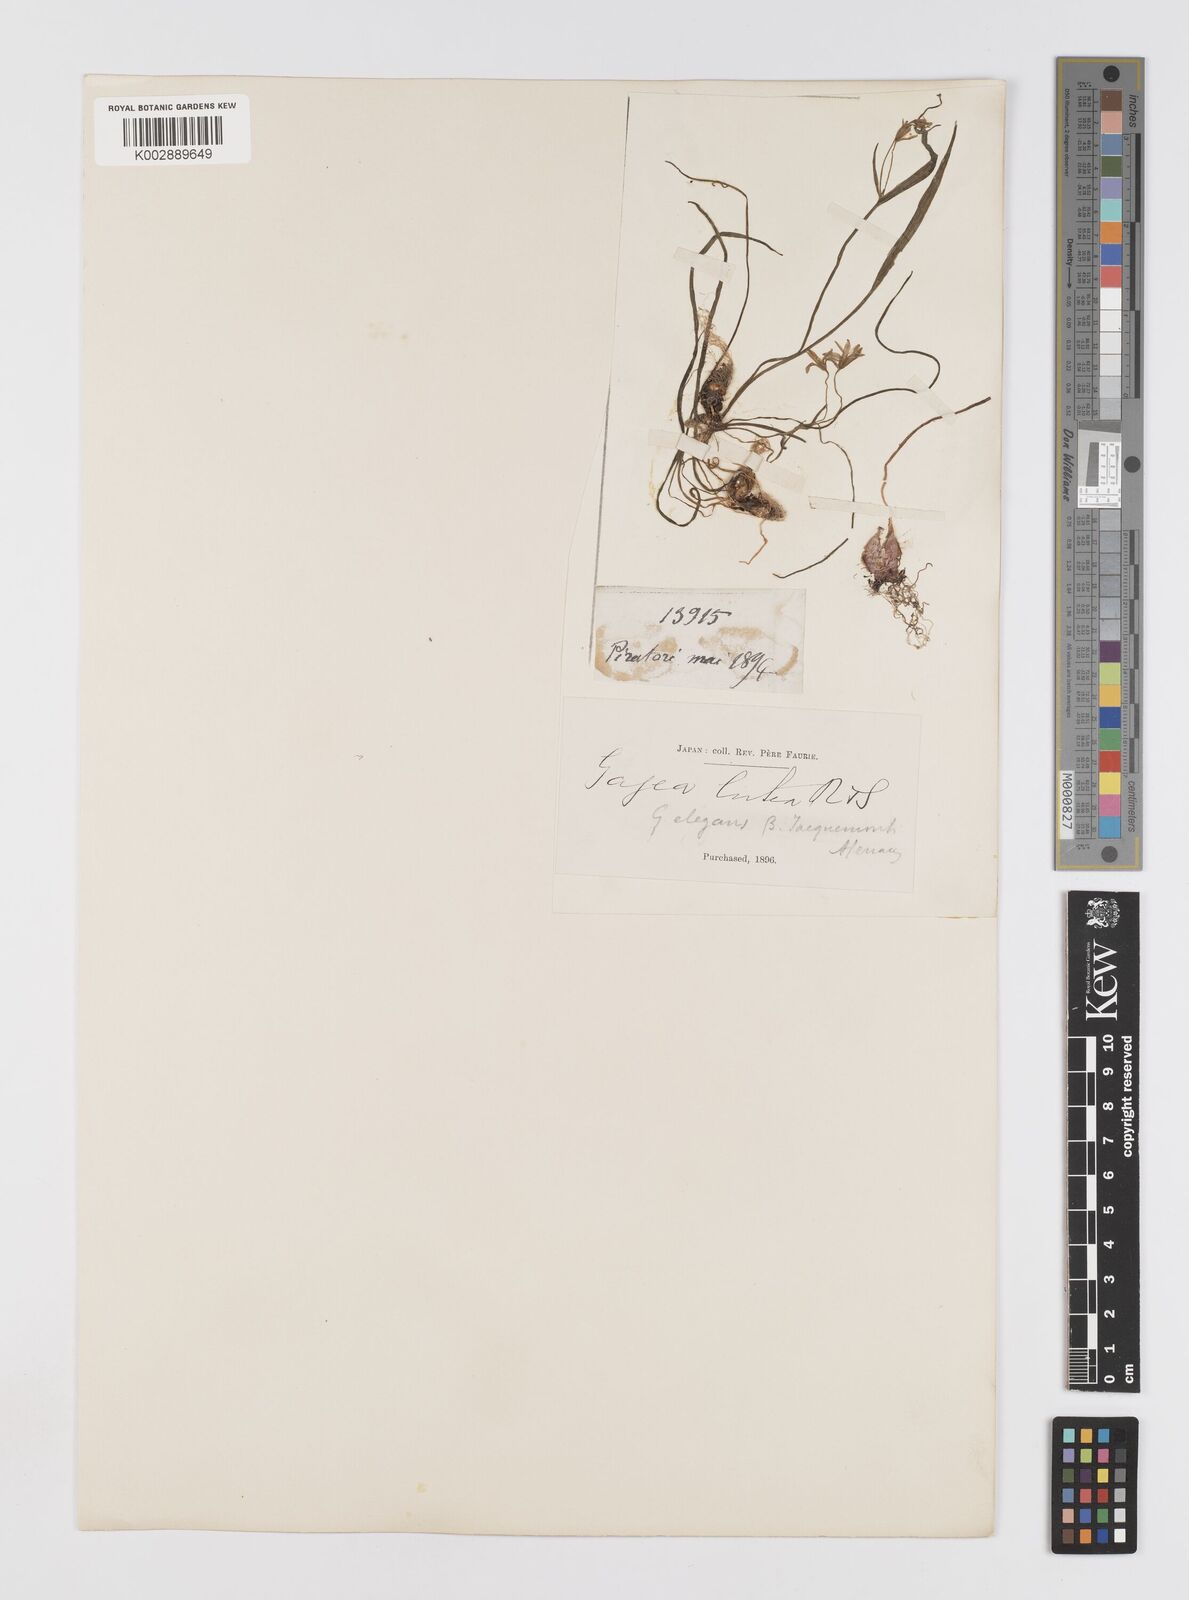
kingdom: Plantae
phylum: Tracheophyta
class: Liliopsida
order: Liliales
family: Liliaceae
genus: Gagea
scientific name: Gagea lutea
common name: Yellow star-of-bethlehem
